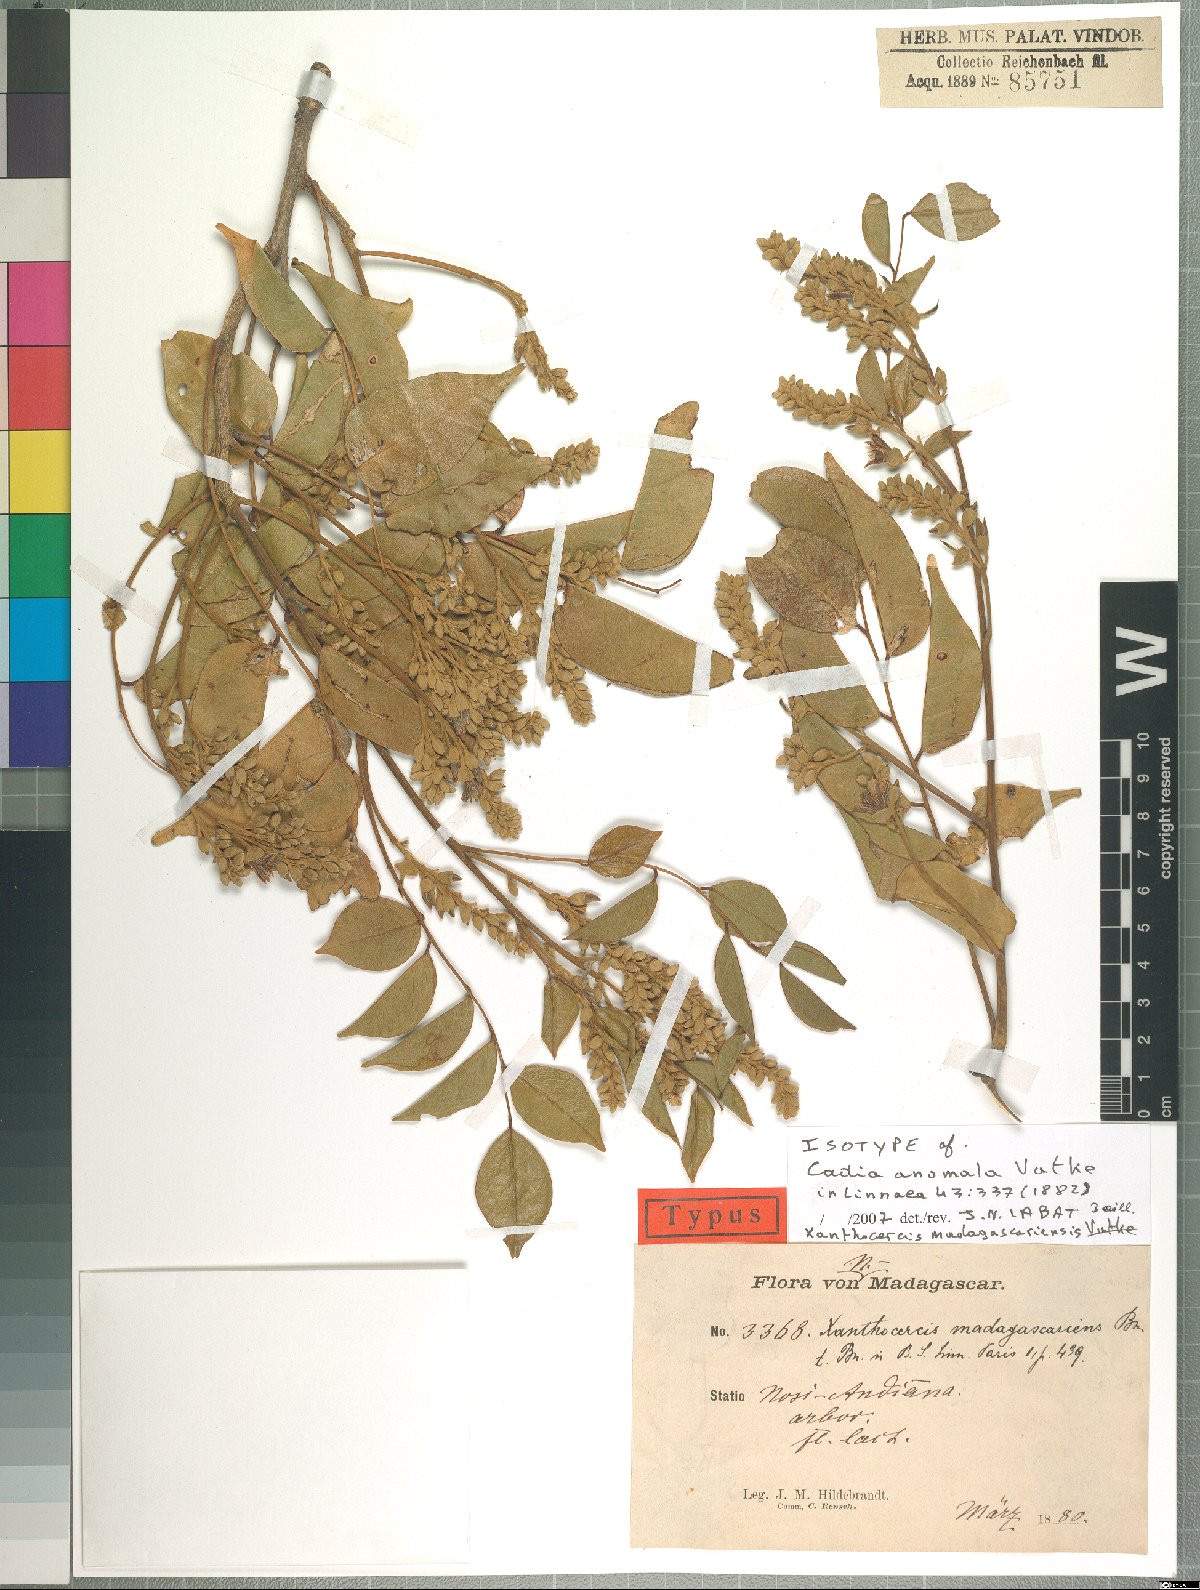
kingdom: Plantae
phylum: Tracheophyta
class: Magnoliopsida
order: Fabales
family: Fabaceae
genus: Xanthocercis
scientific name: Xanthocercis madagascariensis
